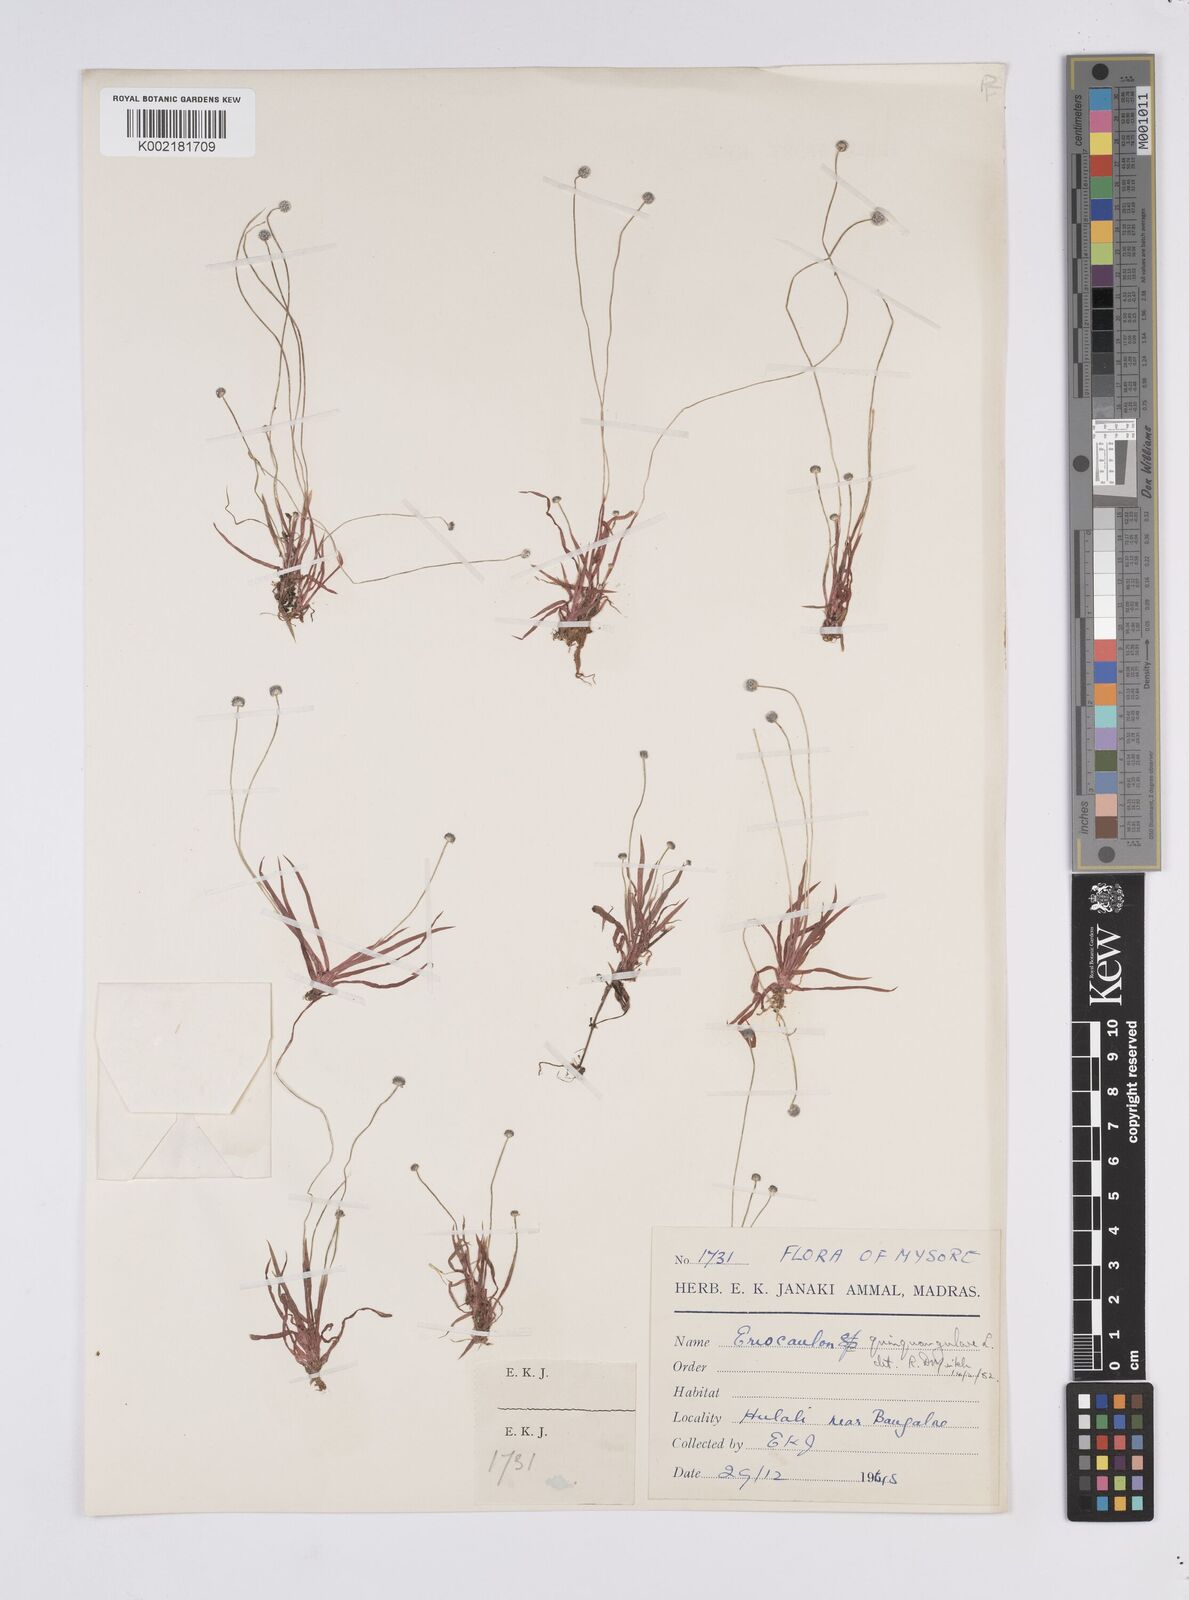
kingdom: Plantae
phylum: Tracheophyta
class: Liliopsida
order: Poales
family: Eriocaulaceae
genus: Eriocaulon
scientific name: Eriocaulon quinquangulare
